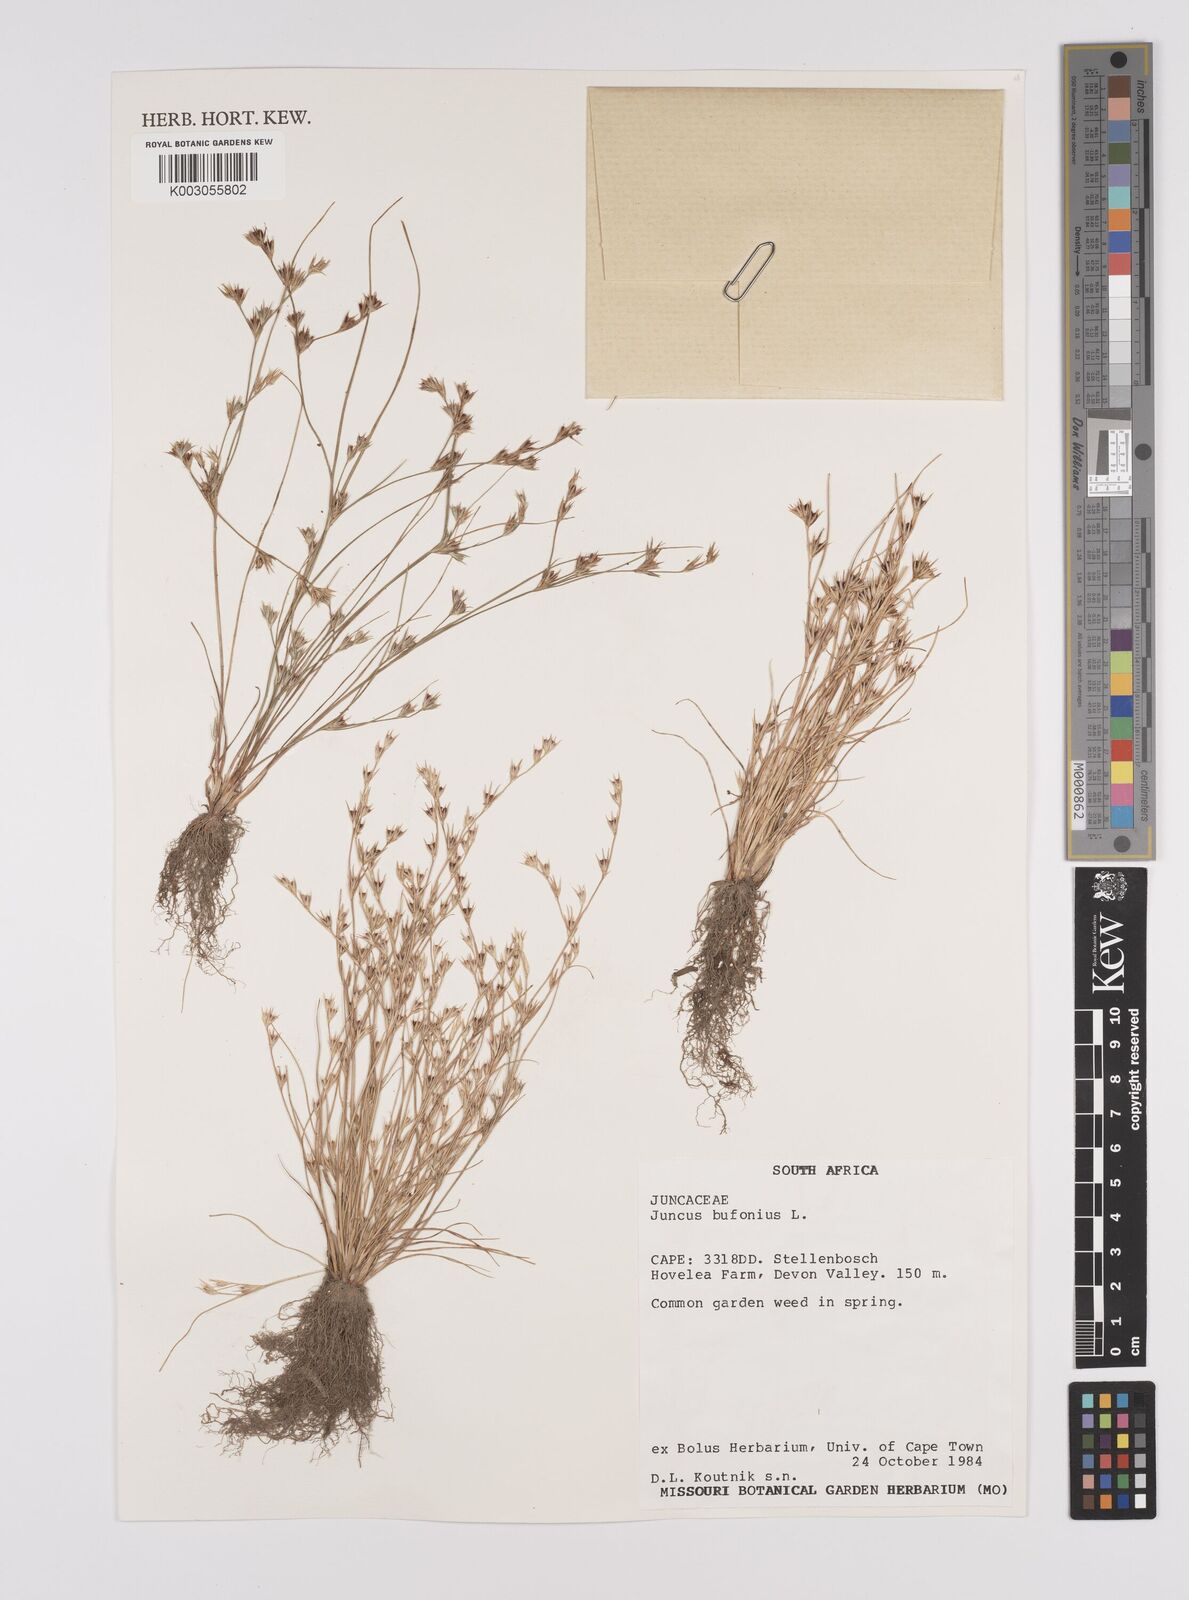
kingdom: Plantae
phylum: Tracheophyta
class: Liliopsida
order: Poales
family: Juncaceae
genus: Juncus
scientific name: Juncus bufonius
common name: Toad rush
